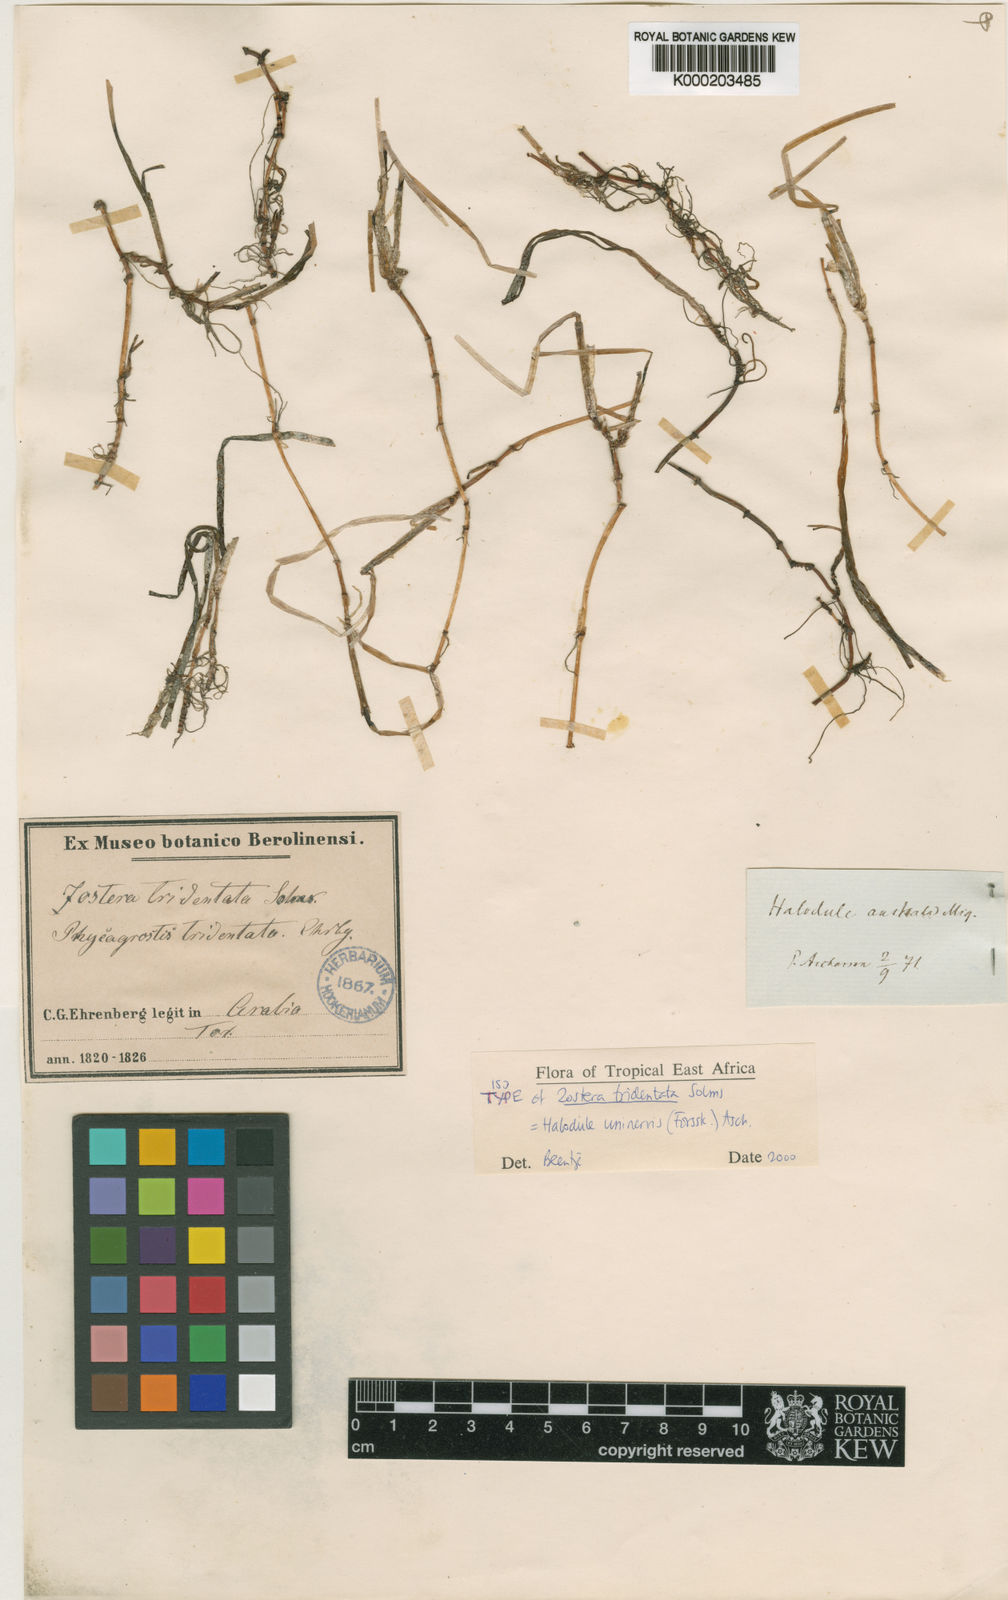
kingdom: Plantae
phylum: Tracheophyta
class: Liliopsida
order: Alismatales
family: Cymodoceaceae
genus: Halodule
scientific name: Halodule uninervis
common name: Narrowleaf seagrass
